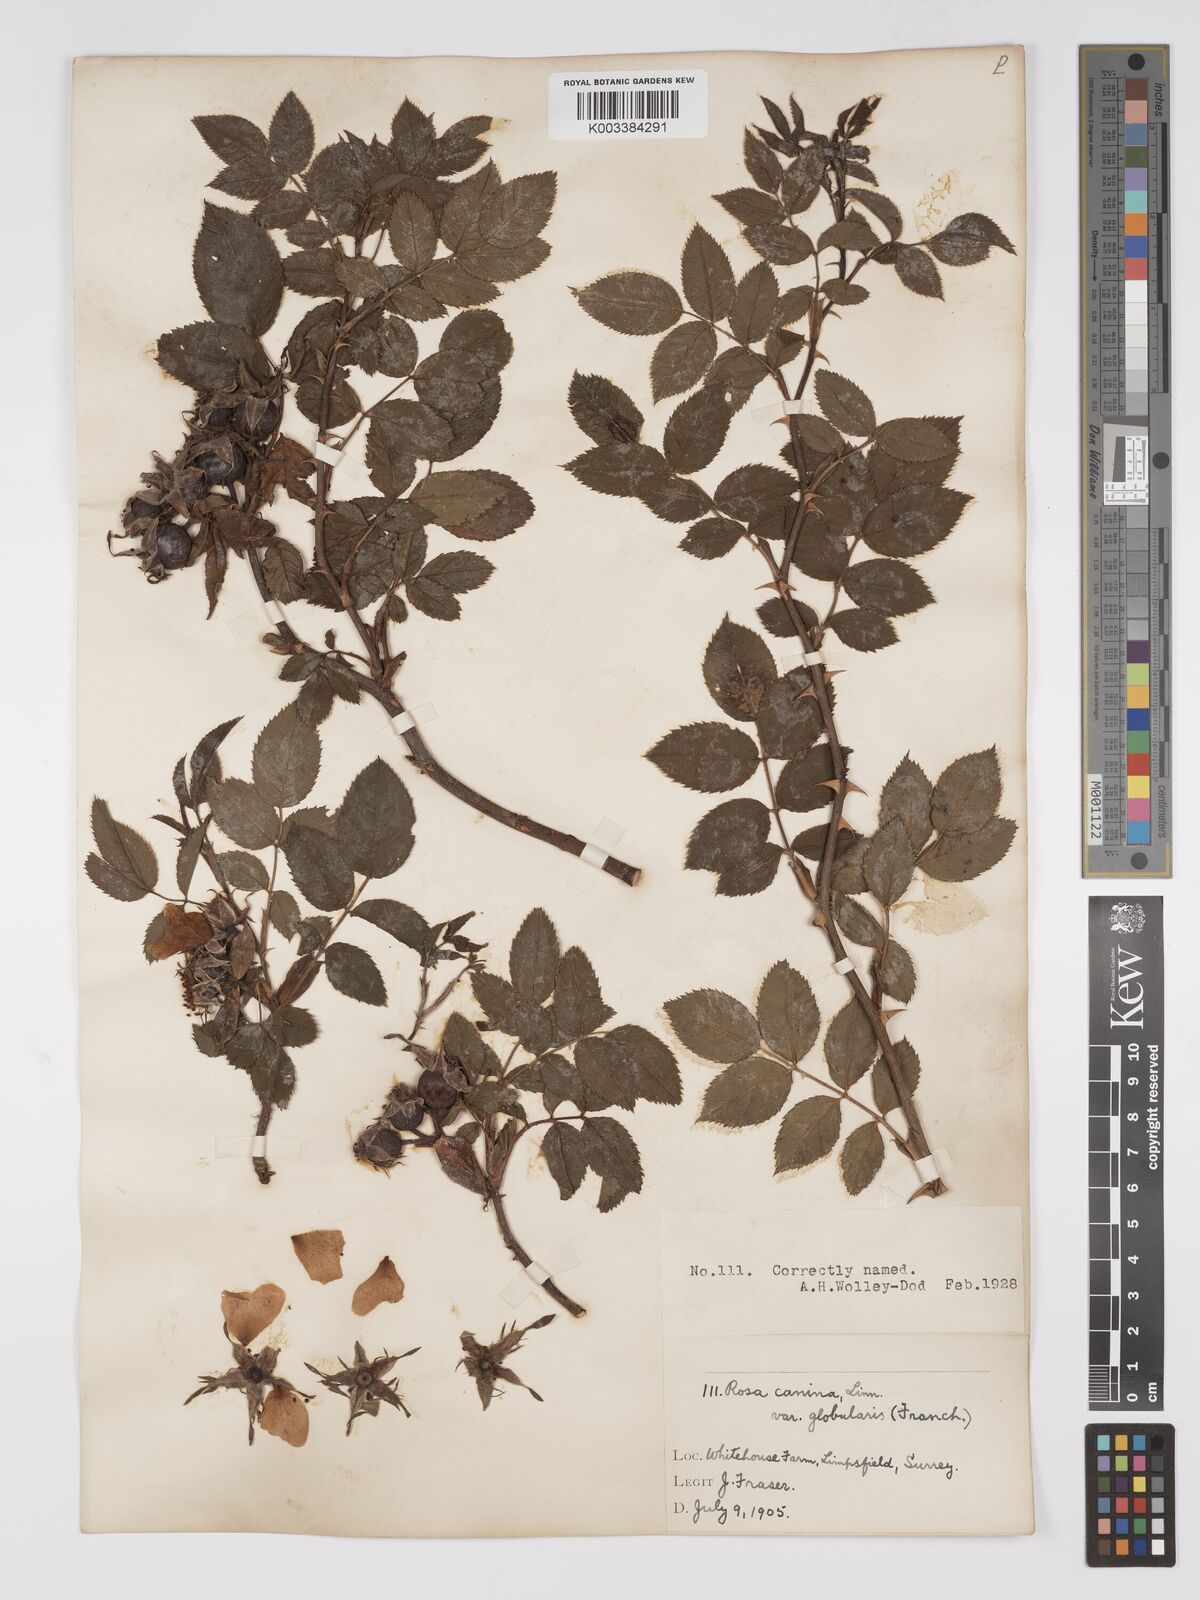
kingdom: Plantae
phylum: Tracheophyta
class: Magnoliopsida
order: Rosales
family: Rosaceae
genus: Rosa
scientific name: Rosa canina
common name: Dog rose
